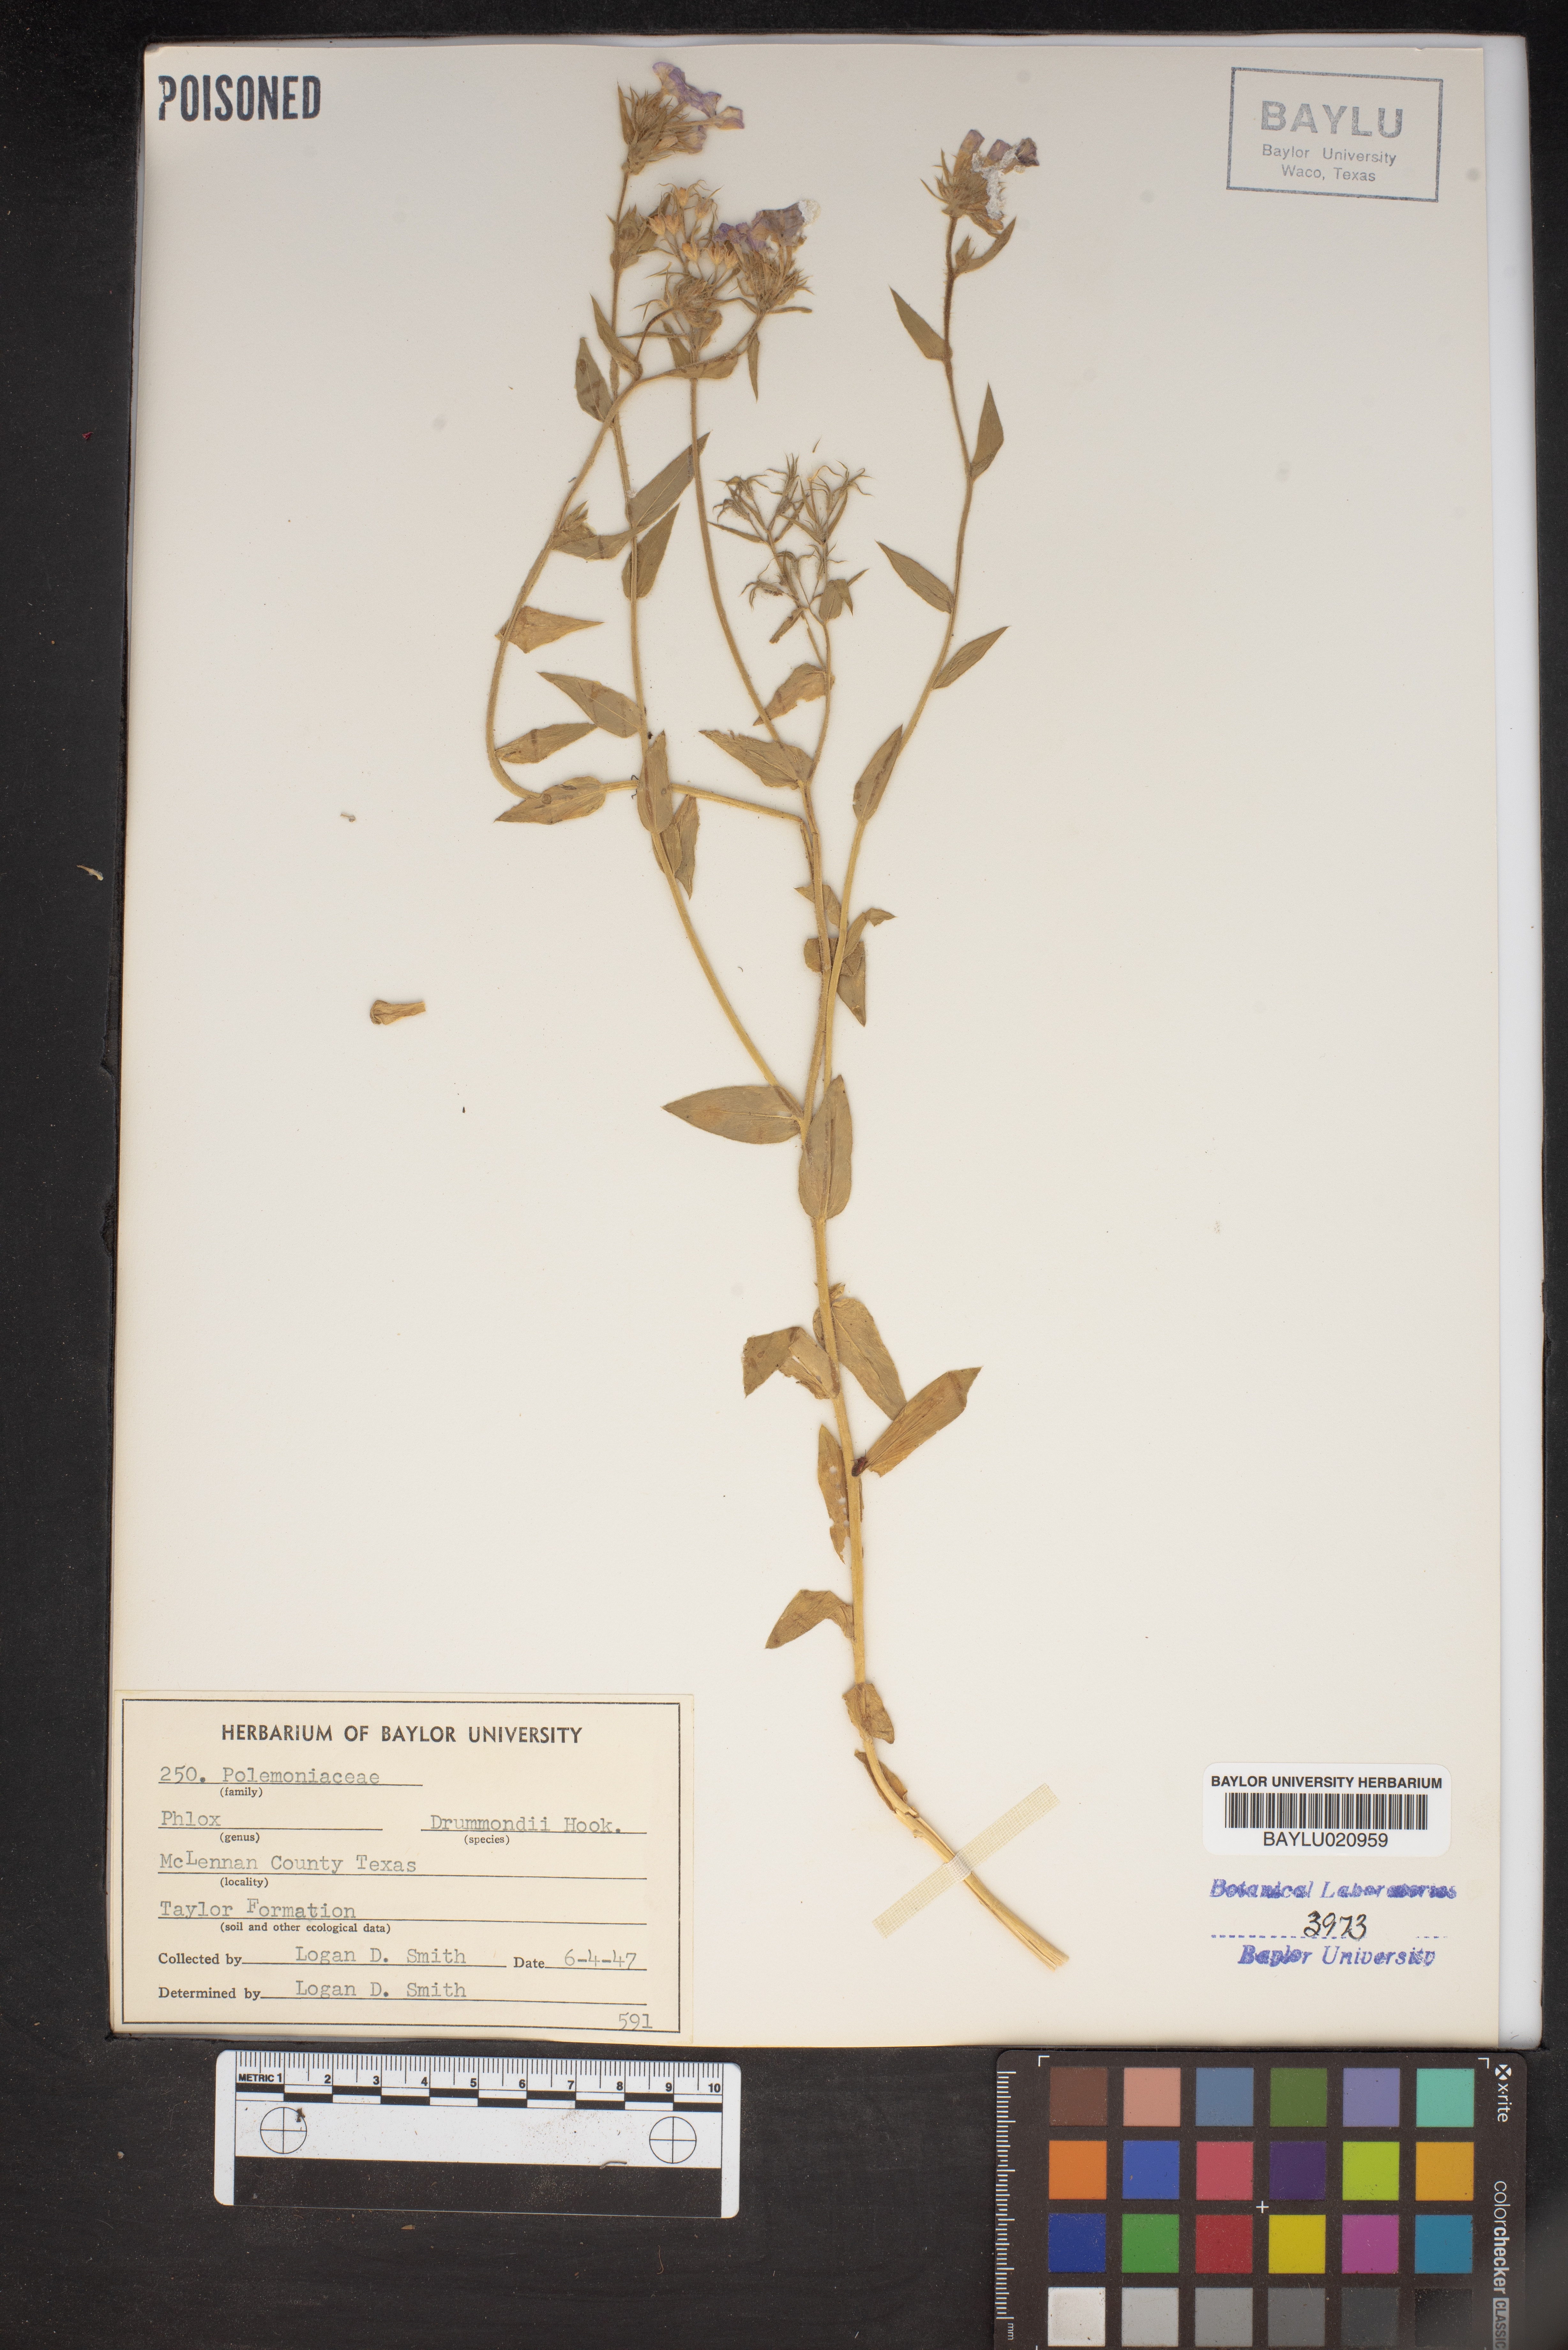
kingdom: Plantae
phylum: Tracheophyta
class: Magnoliopsida
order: Ericales
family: Polemoniaceae
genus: Phlox
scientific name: Phlox drummondii
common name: Drummond's phlox
